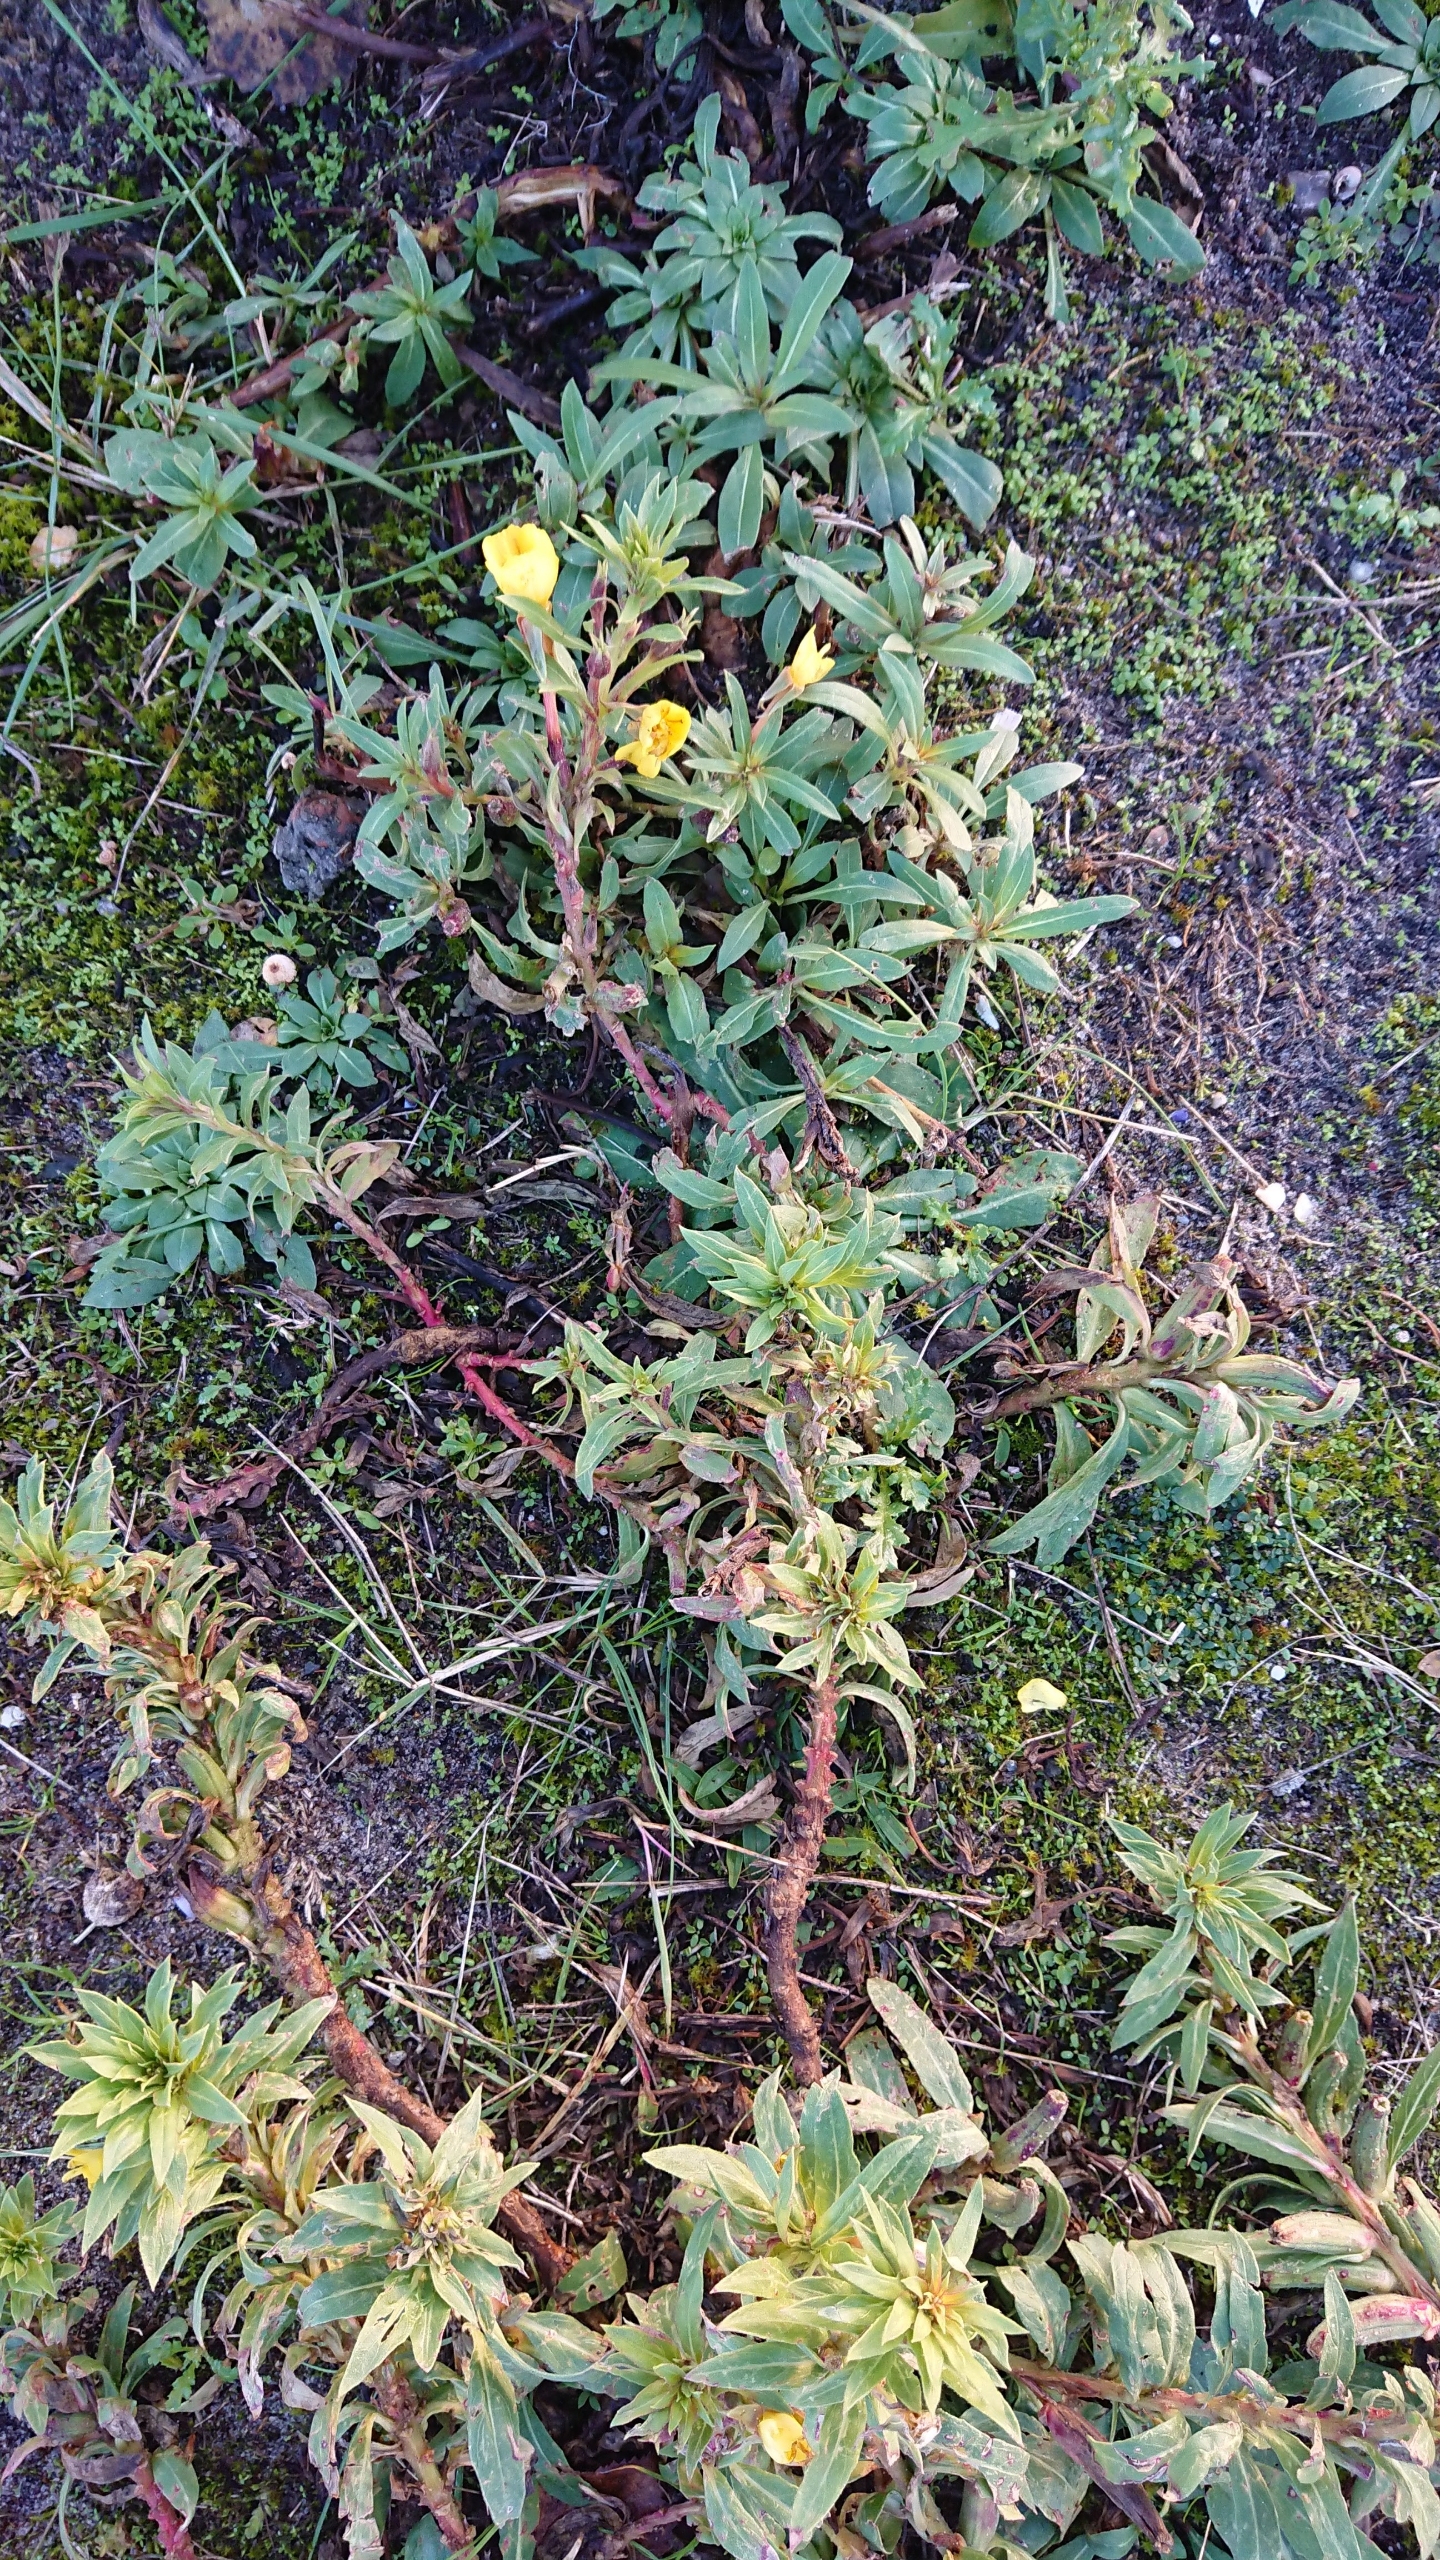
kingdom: Plantae
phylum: Tracheophyta
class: Magnoliopsida
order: Myrtales
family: Onagraceae
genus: Oenothera
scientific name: Oenothera ammophila
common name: Klit-natlys
